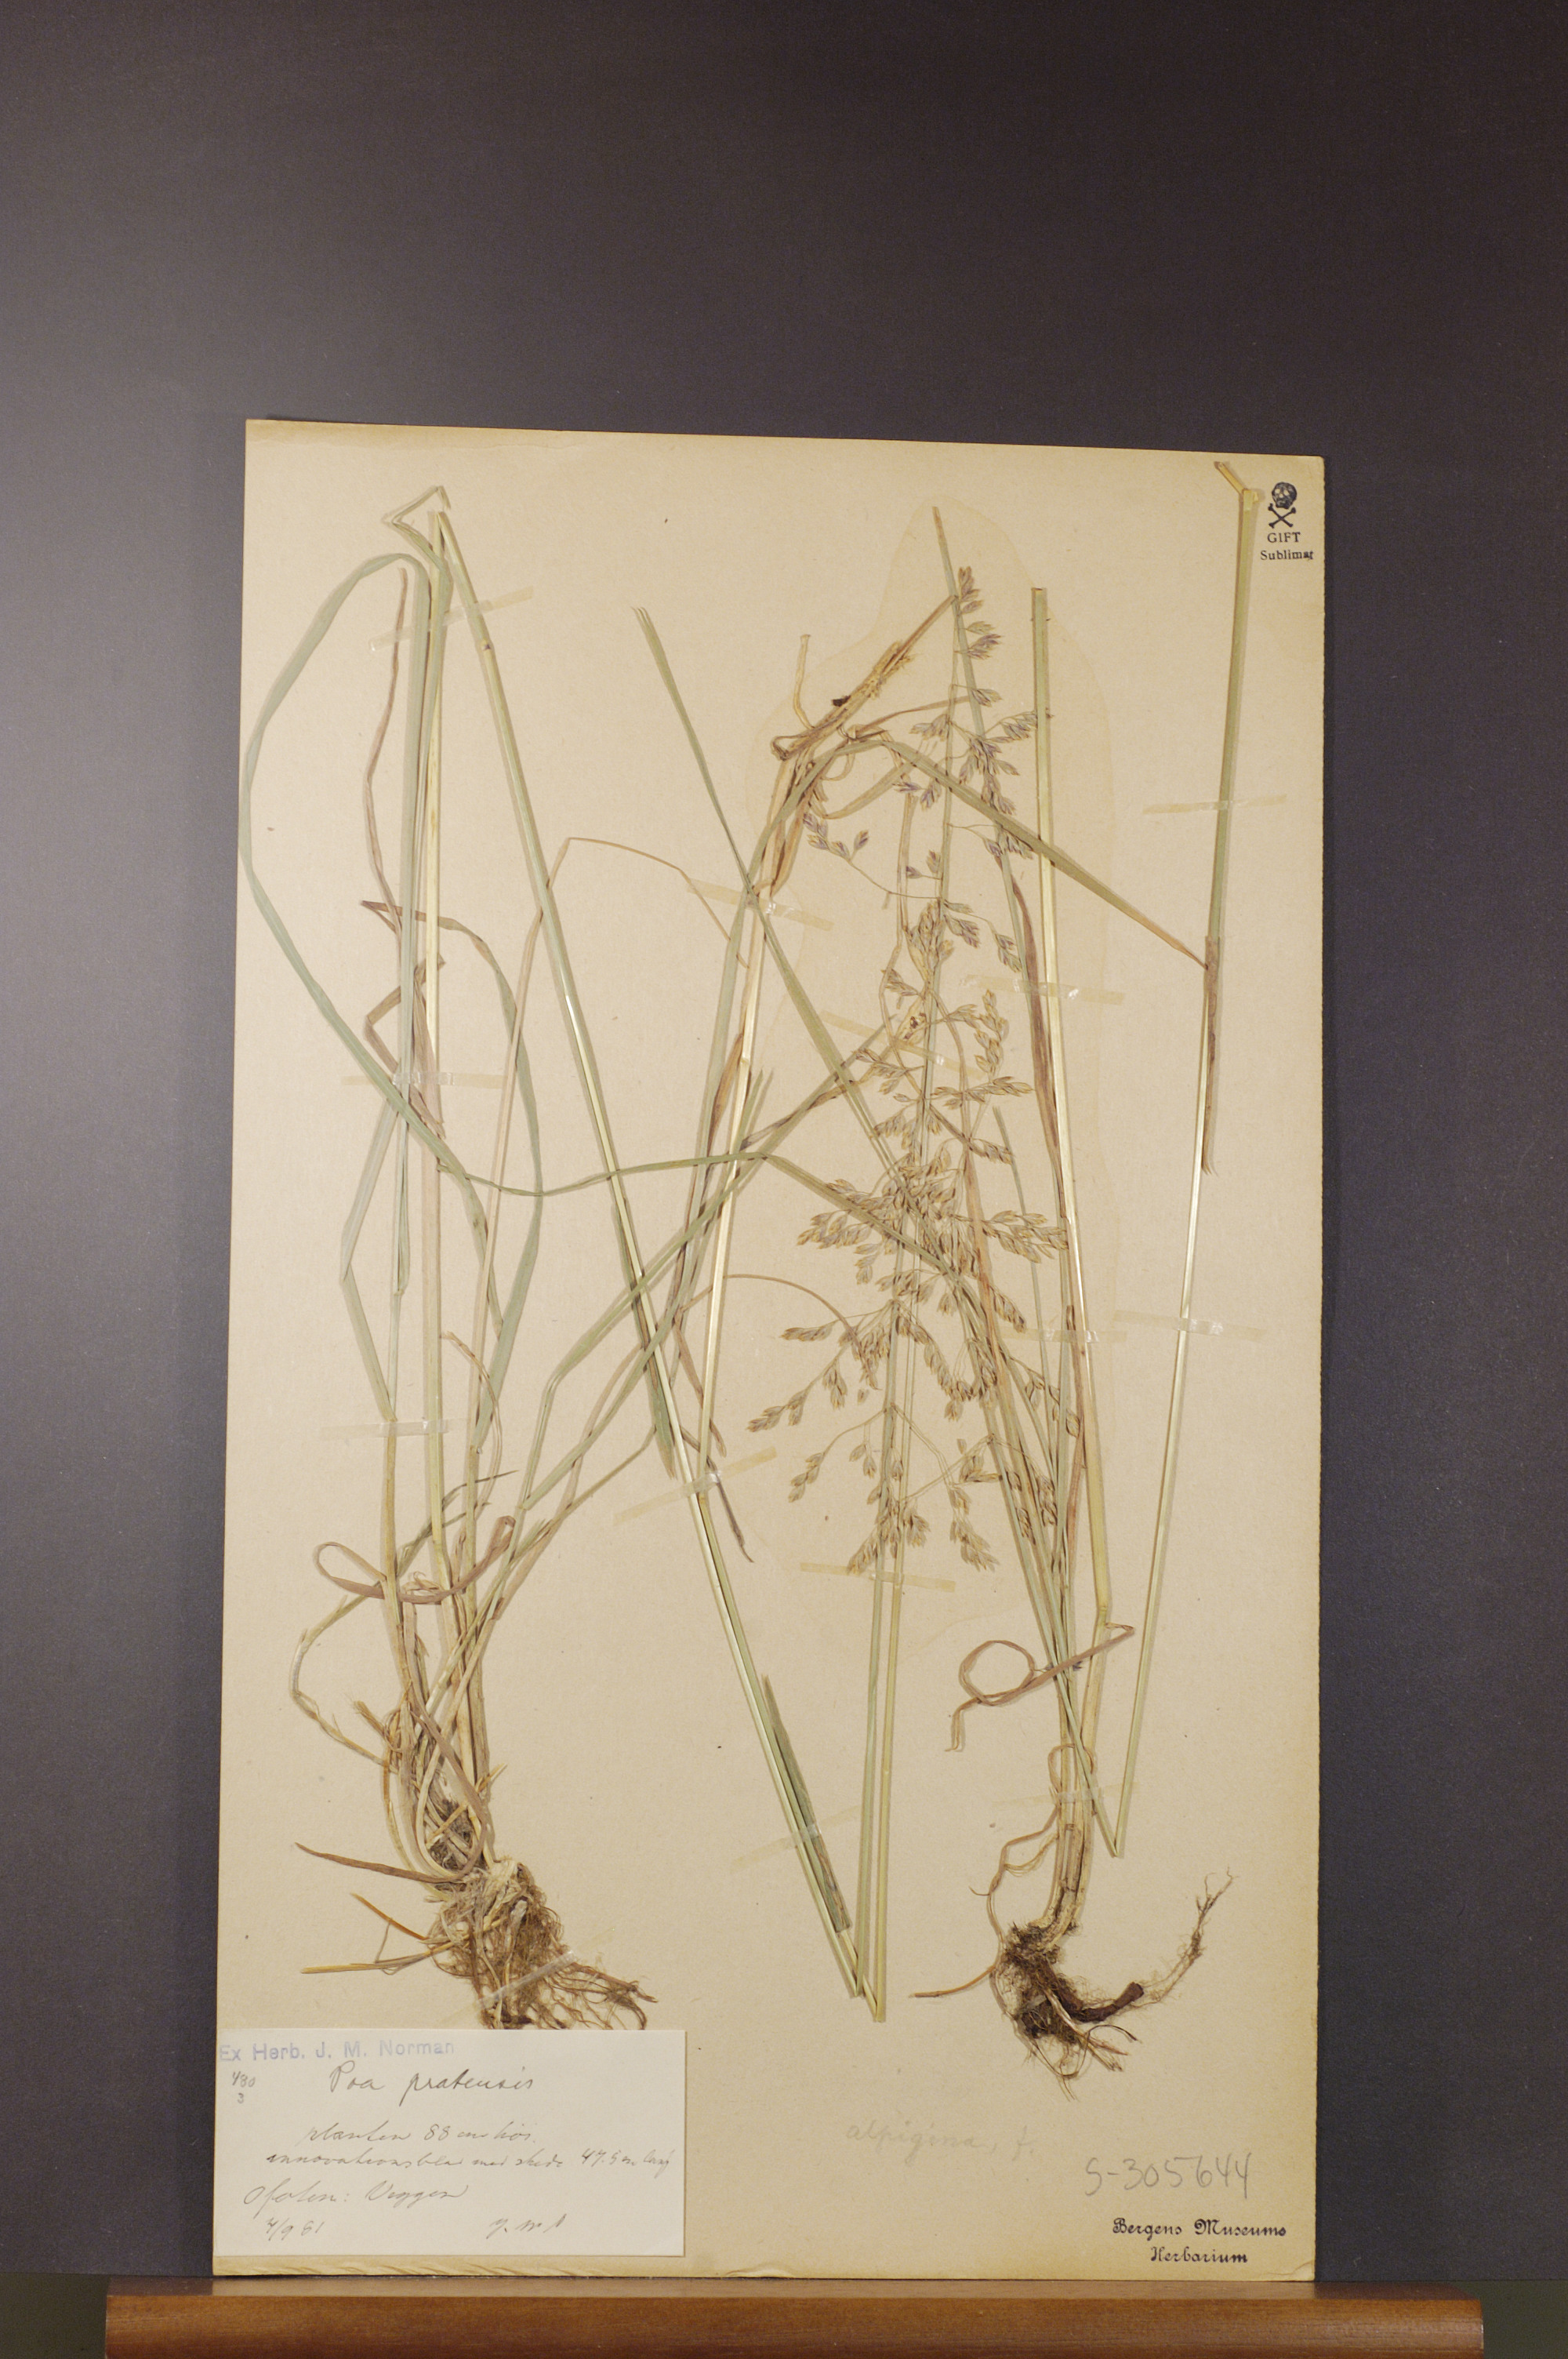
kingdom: Plantae
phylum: Tracheophyta
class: Liliopsida
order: Poales
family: Poaceae
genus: Poa
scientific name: Poa pratensis
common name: Kentucky bluegrass
